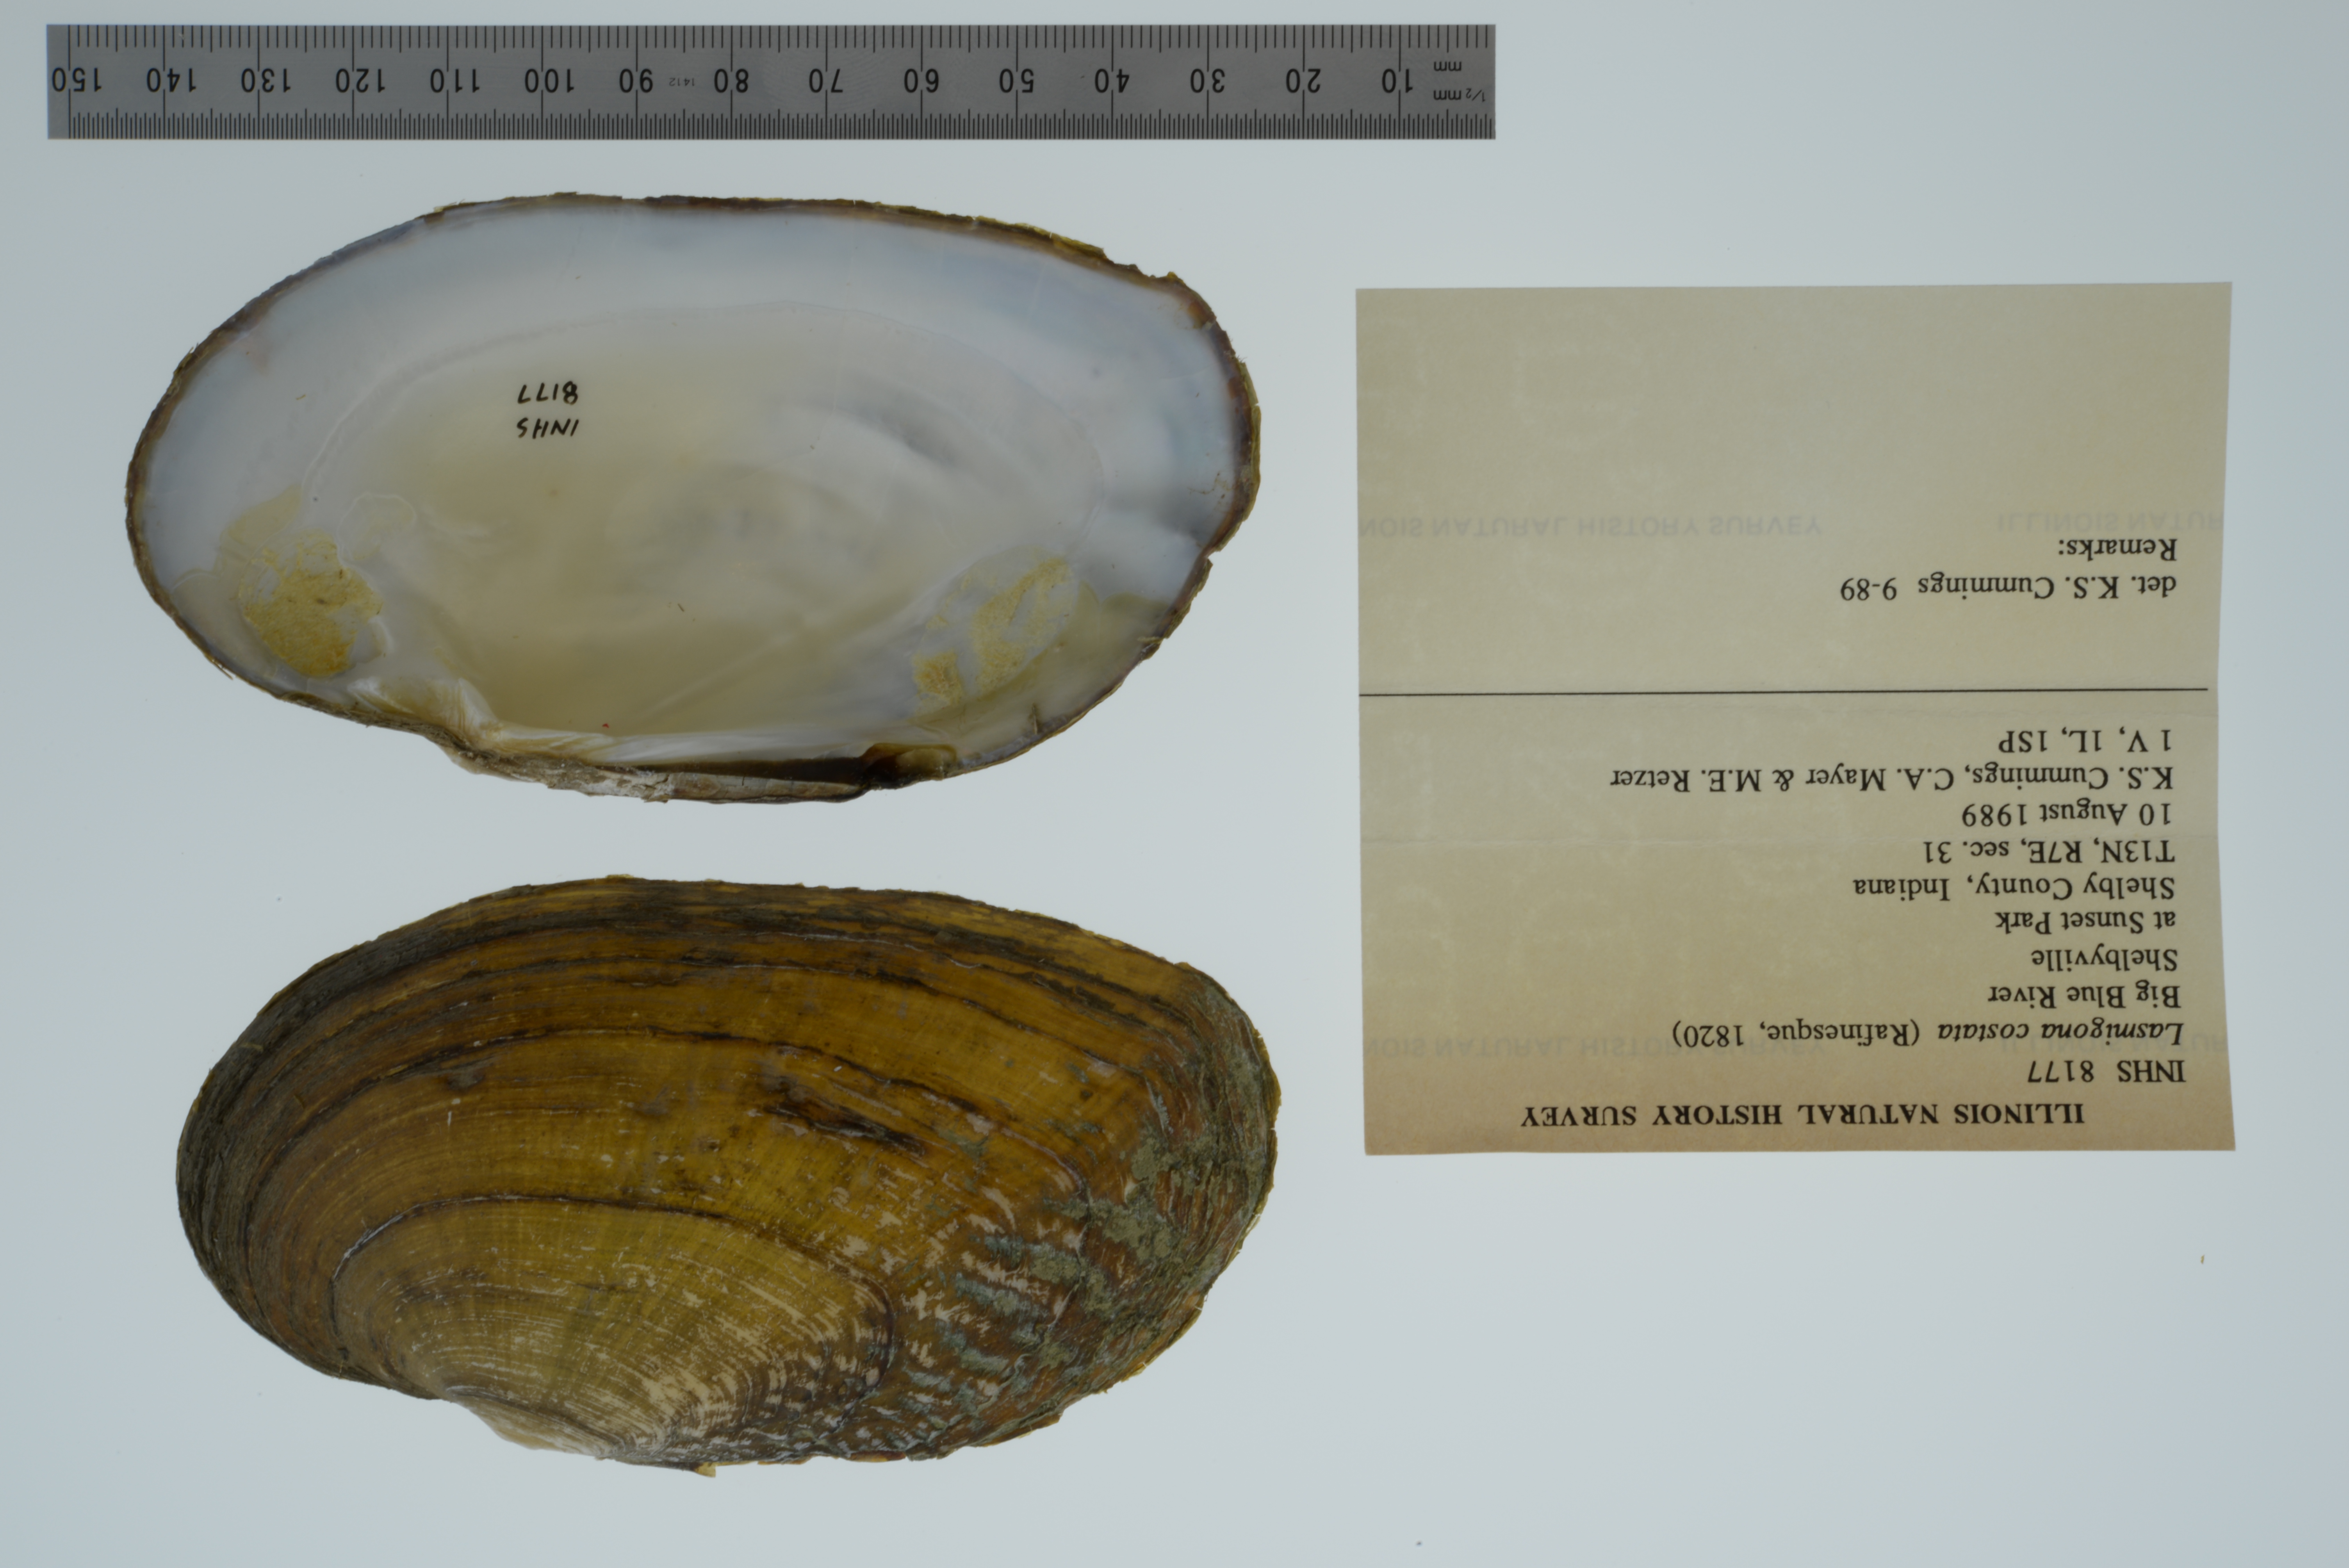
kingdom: Animalia
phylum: Mollusca
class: Bivalvia
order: Unionida
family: Unionidae
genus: Lasmigona
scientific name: Lasmigona costata
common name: Flutedshell
